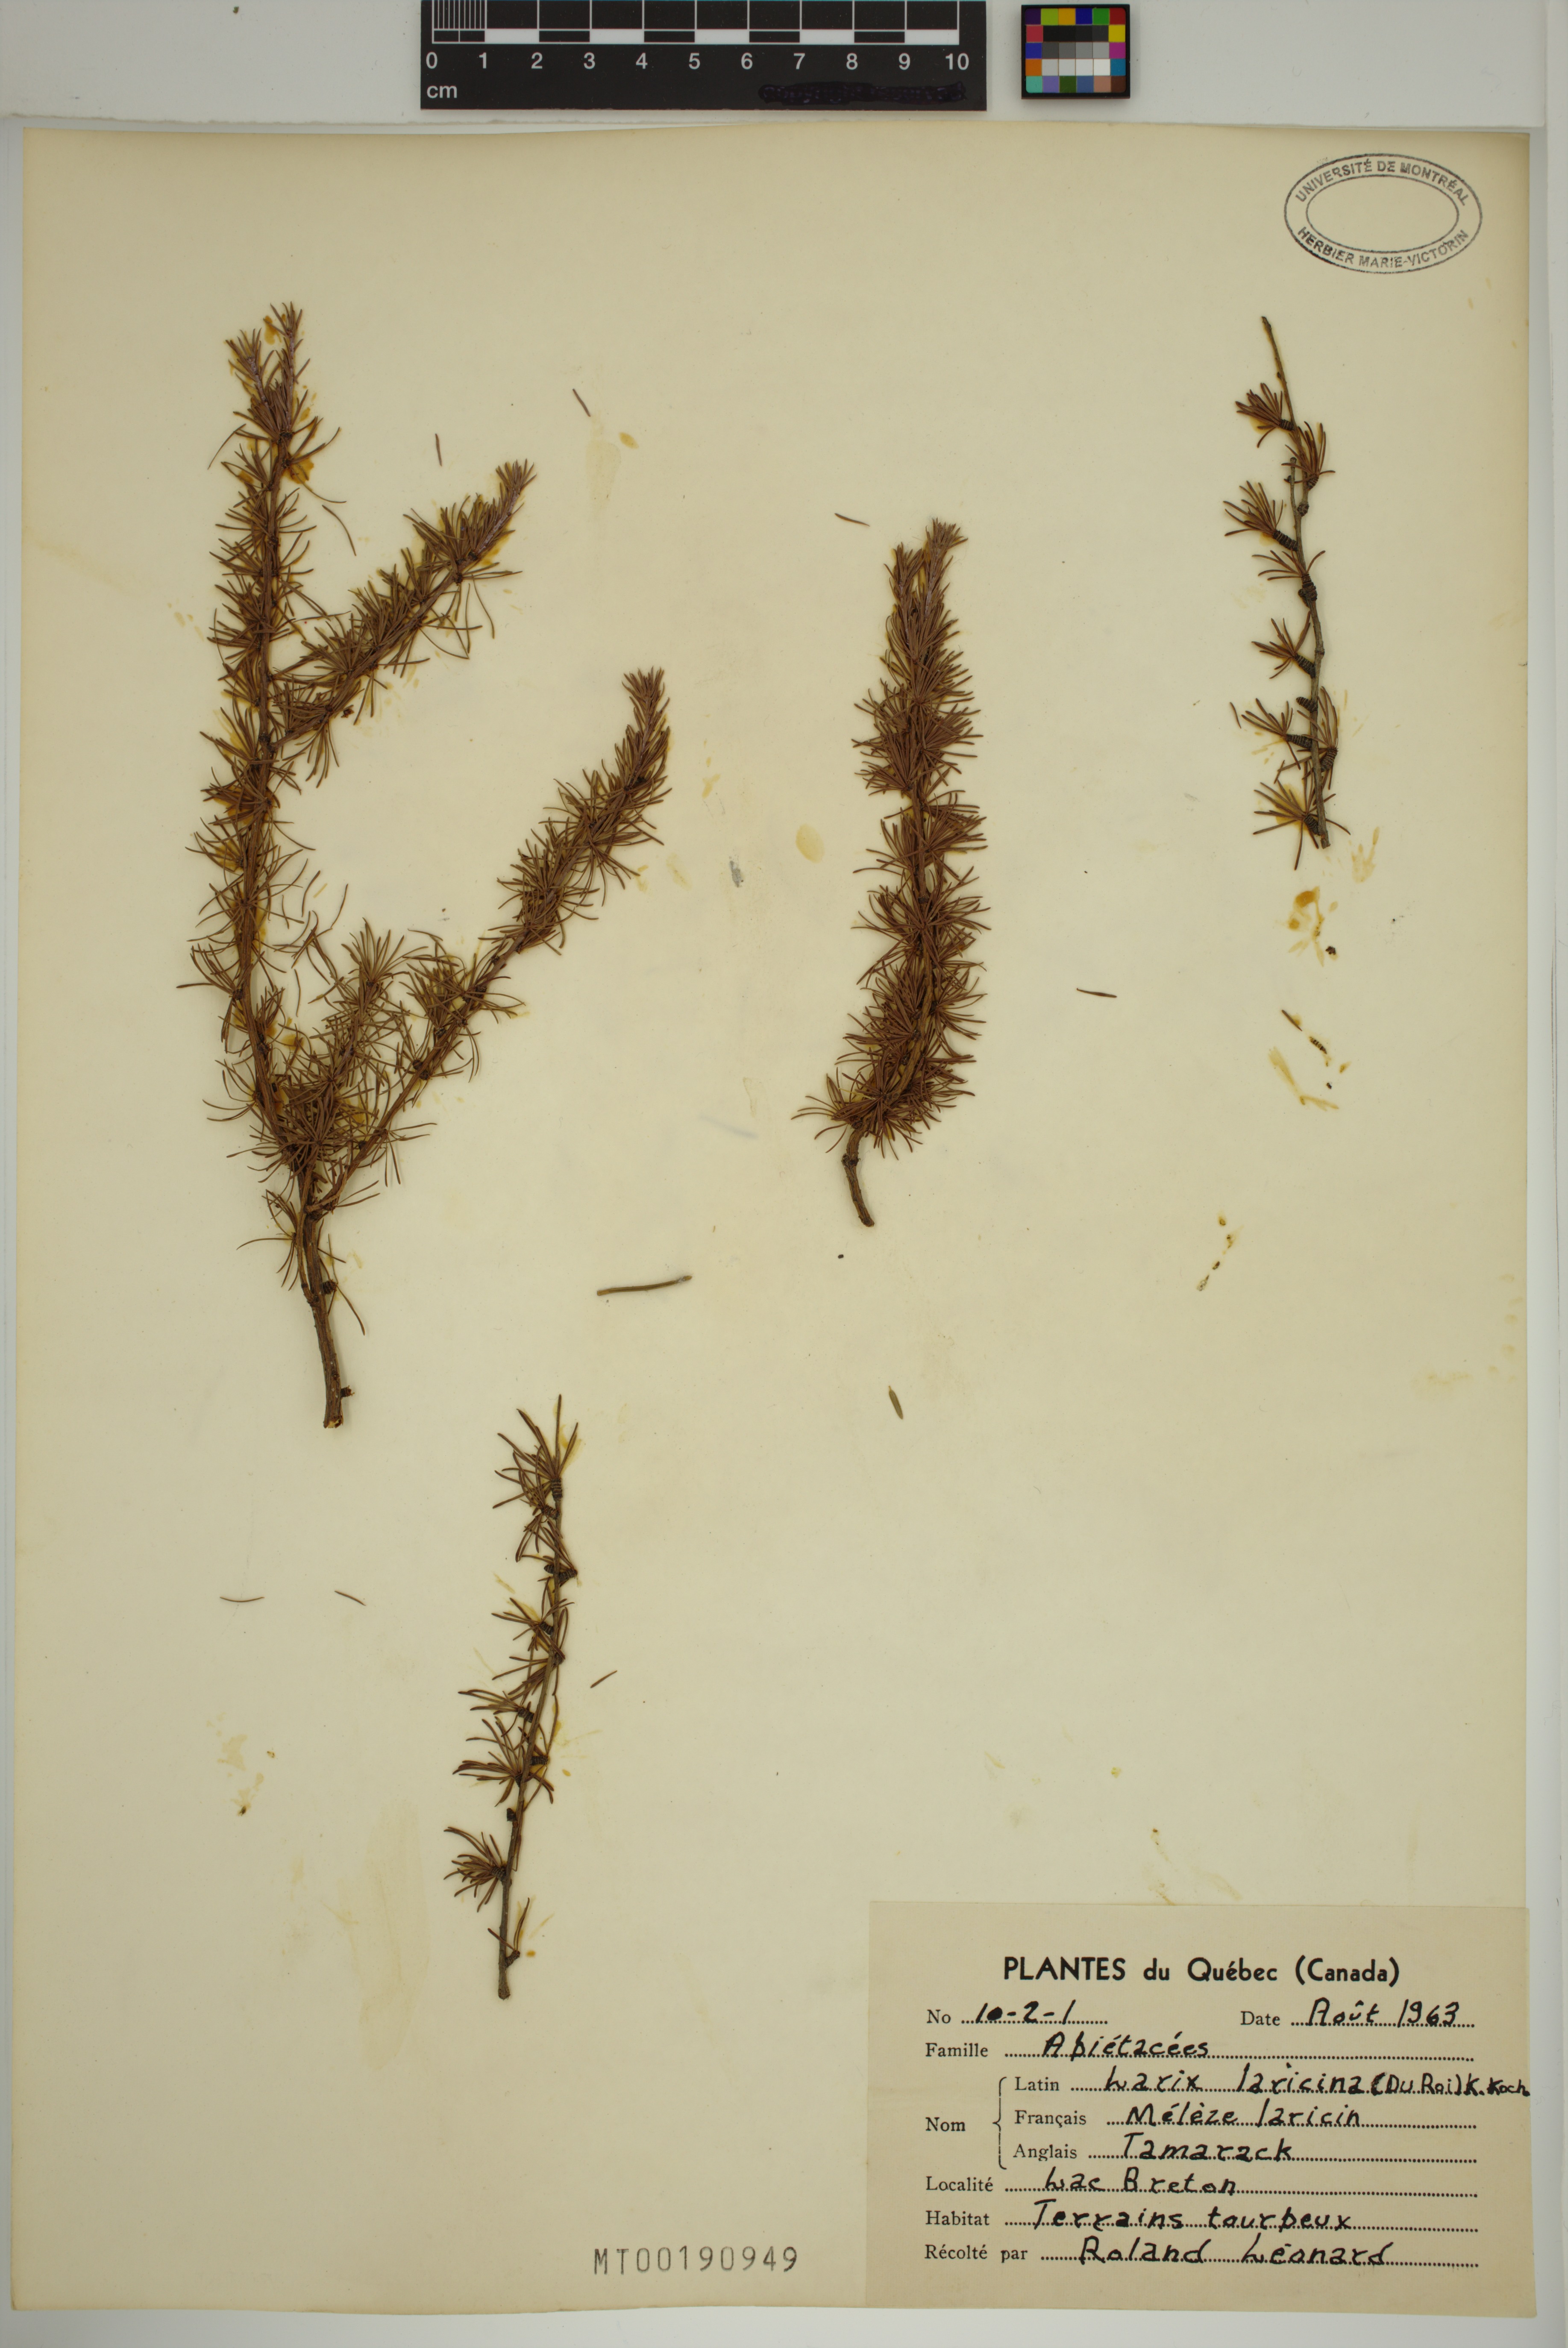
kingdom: Plantae
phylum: Tracheophyta
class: Pinopsida
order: Pinales
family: Pinaceae
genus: Larix
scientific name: Larix laricina
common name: American larch
